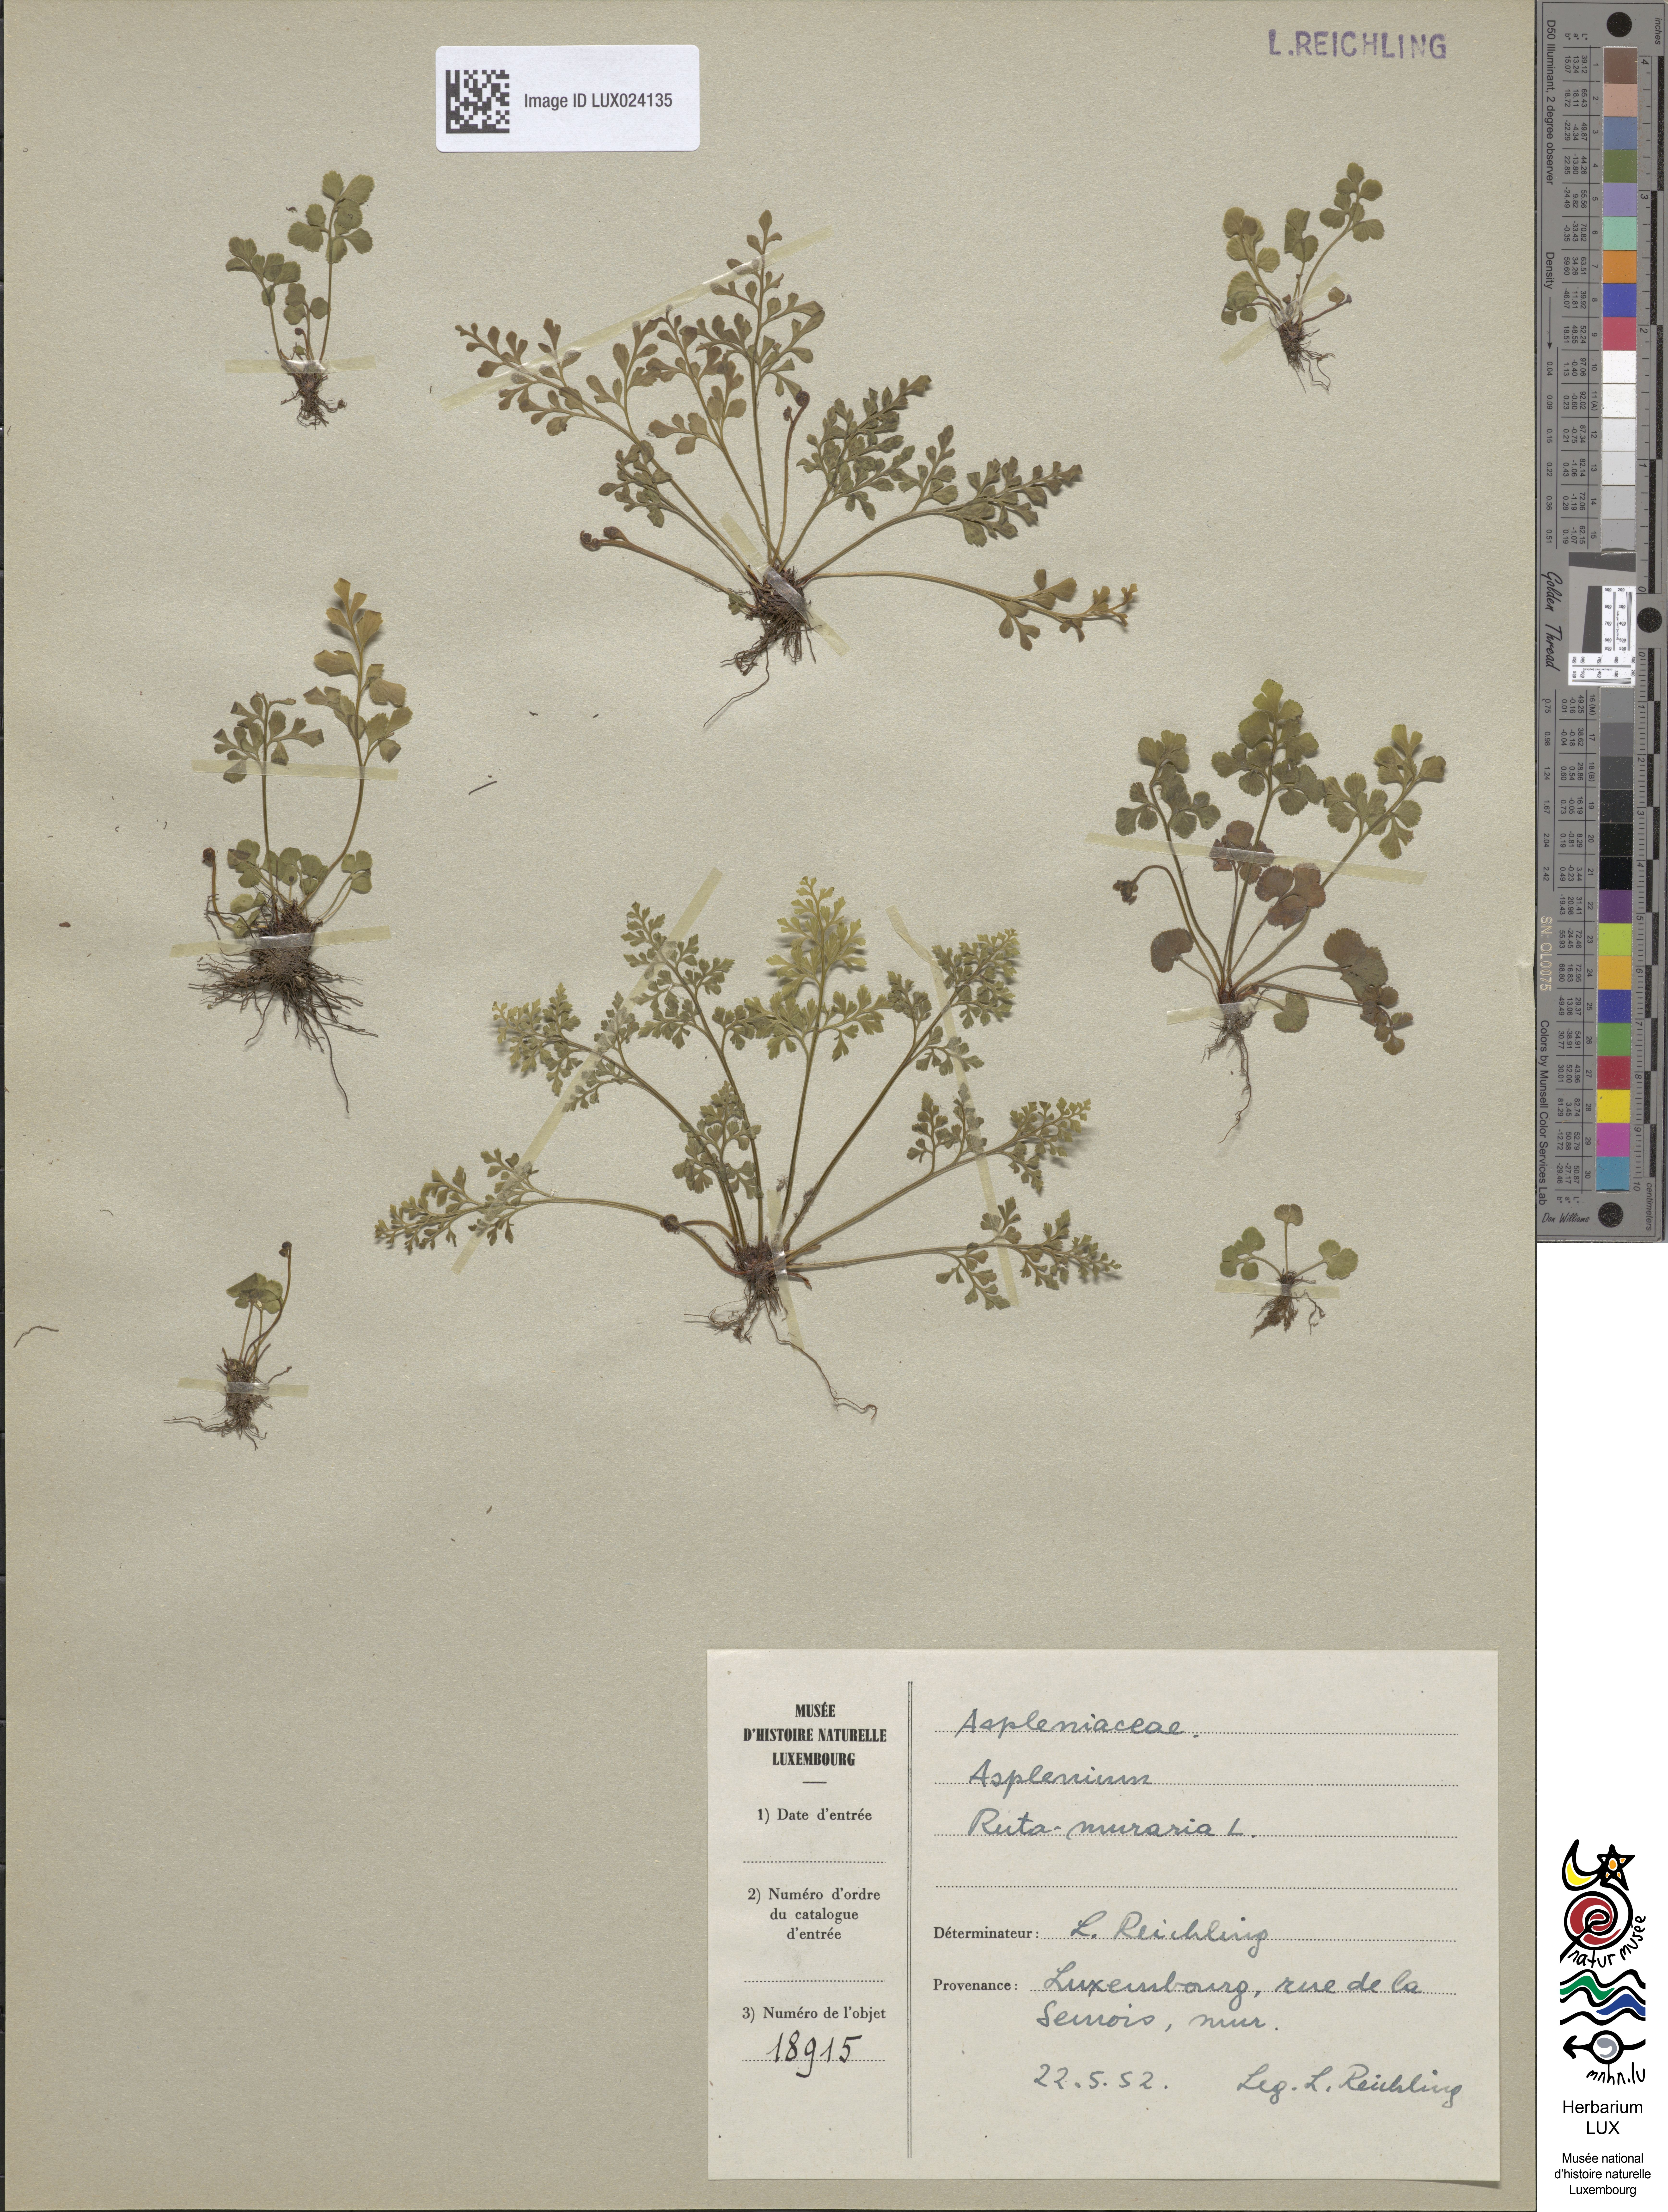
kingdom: Plantae
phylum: Tracheophyta
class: Polypodiopsida
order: Polypodiales
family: Aspleniaceae
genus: Asplenium
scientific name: Asplenium ruta-muraria
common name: Wall-rue
